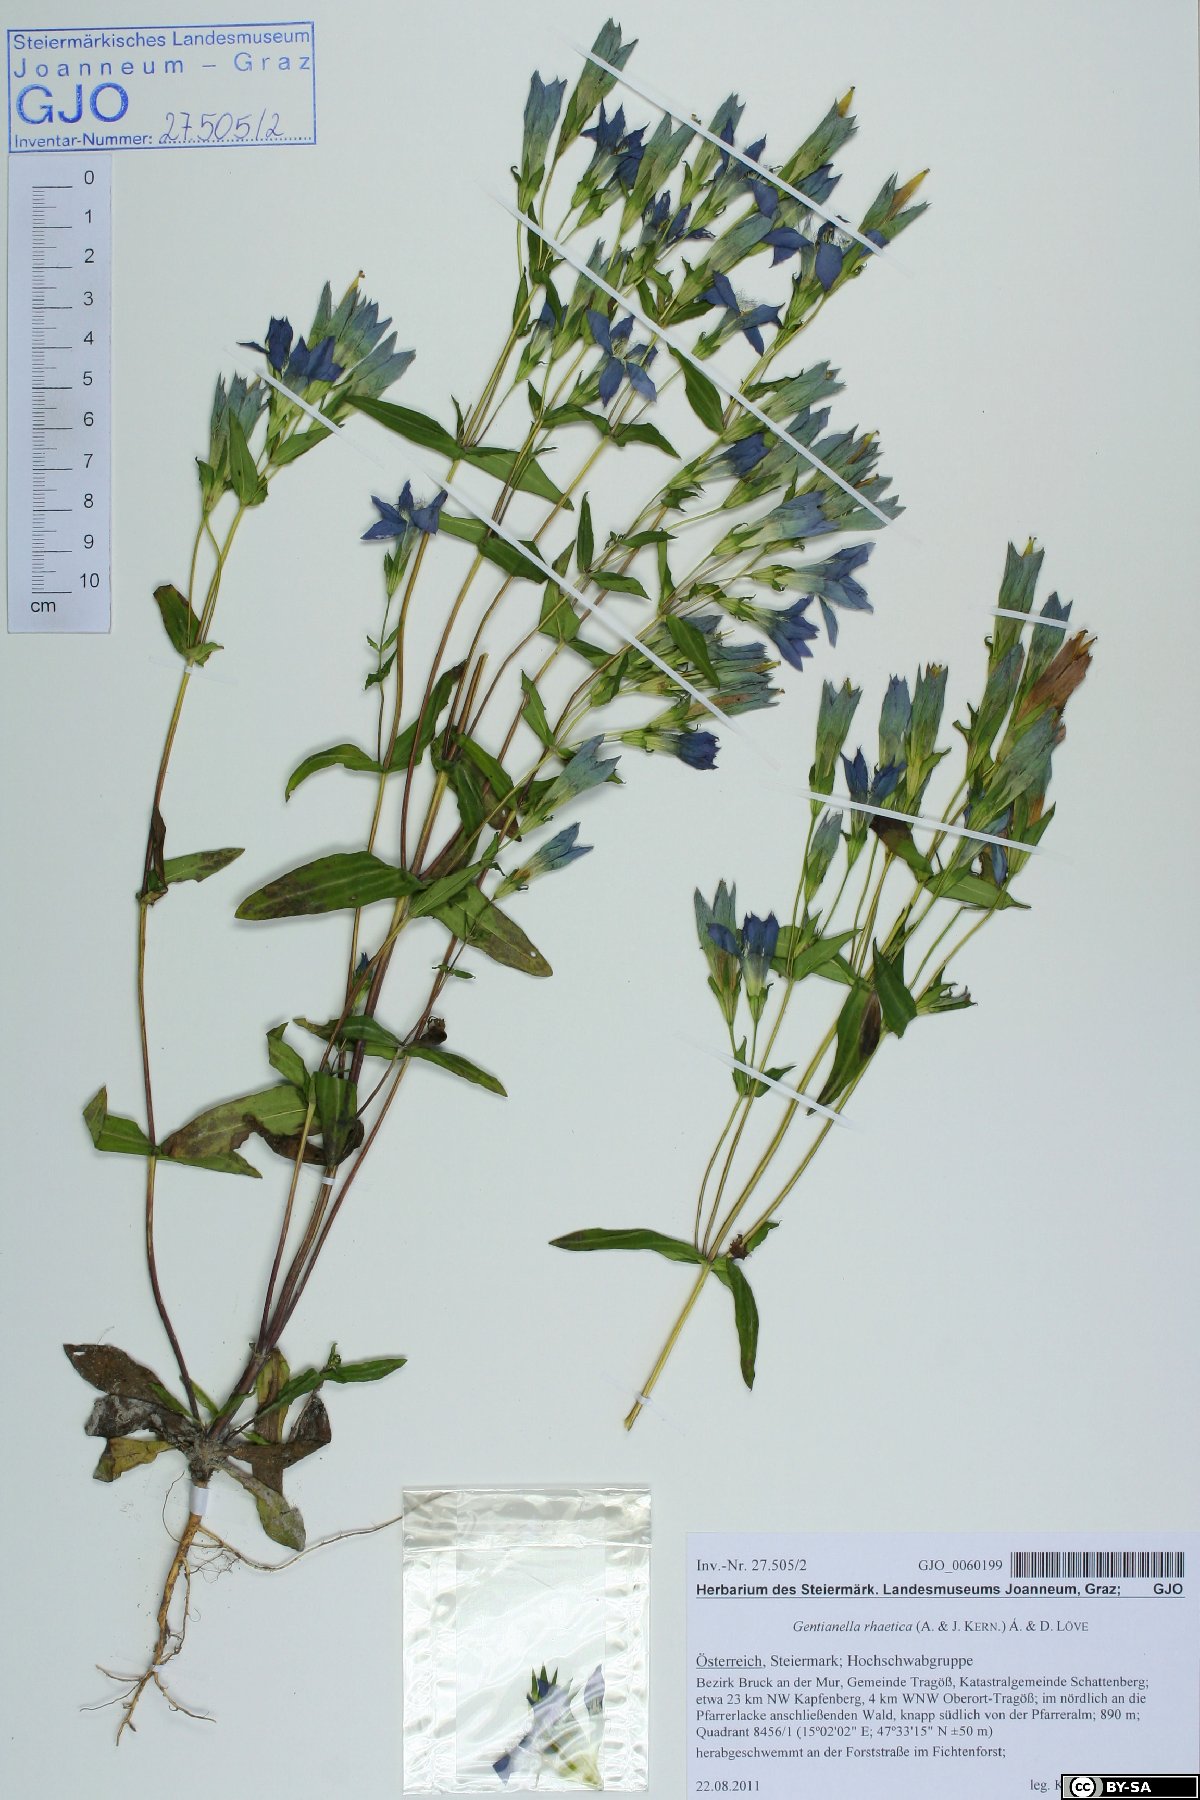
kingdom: Plantae
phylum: Tracheophyta
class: Magnoliopsida
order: Gentianales
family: Gentianaceae
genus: Gentianella
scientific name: Gentianella rhaetica
